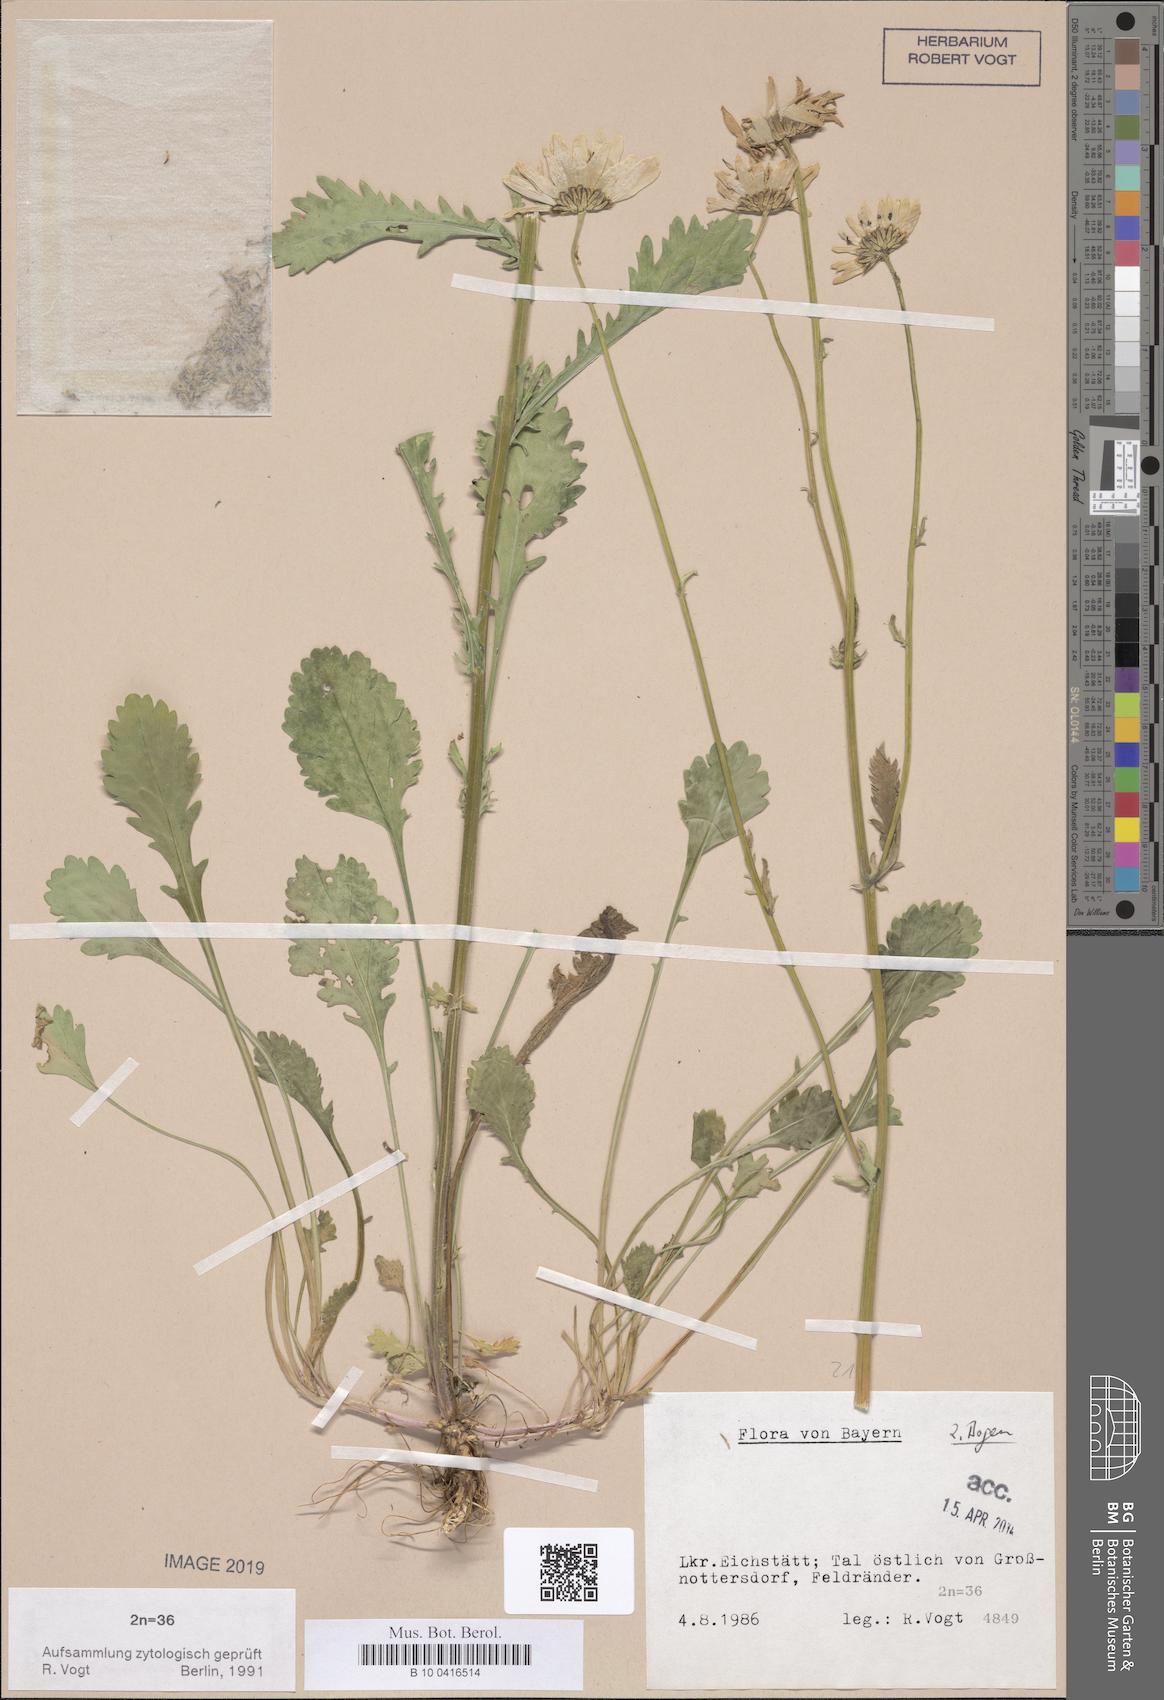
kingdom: Plantae
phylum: Tracheophyta
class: Magnoliopsida
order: Asterales
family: Asteraceae
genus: Leucanthemum
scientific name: Leucanthemum ircutianum
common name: Daisy
